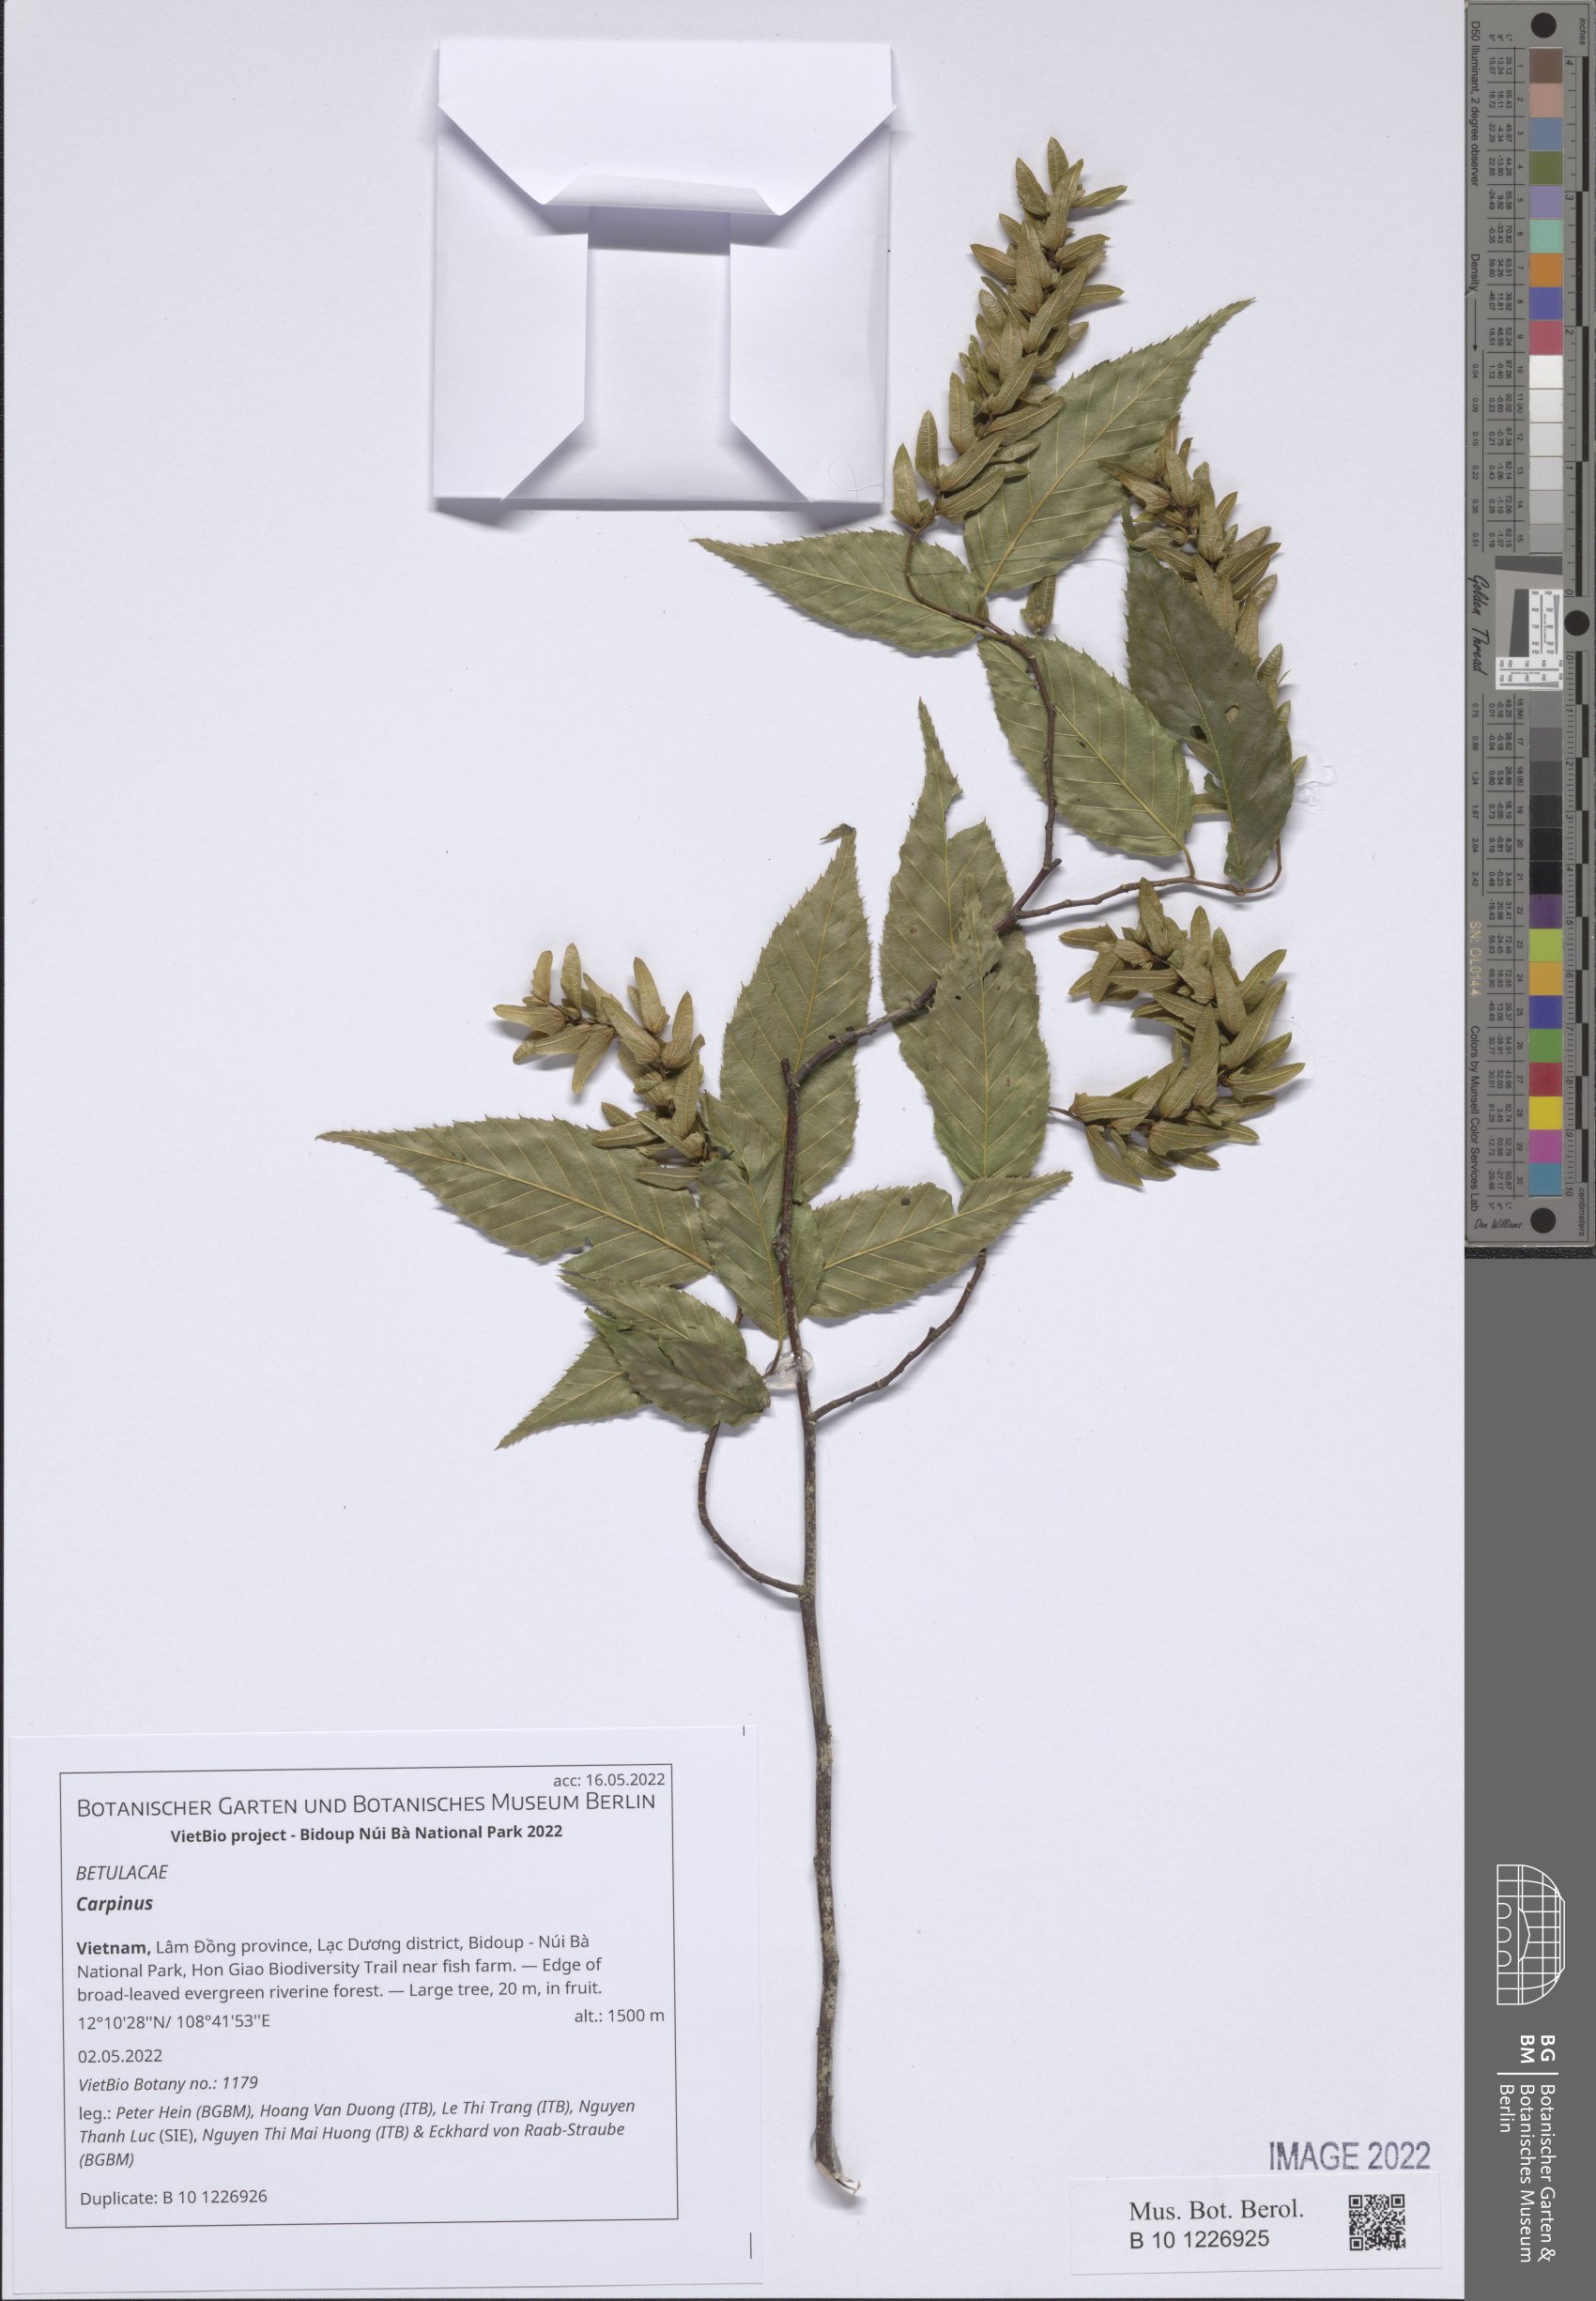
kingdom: Plantae
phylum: Tracheophyta
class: Magnoliopsida
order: Fagales
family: Betulaceae
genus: Carpinus
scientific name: Carpinus
